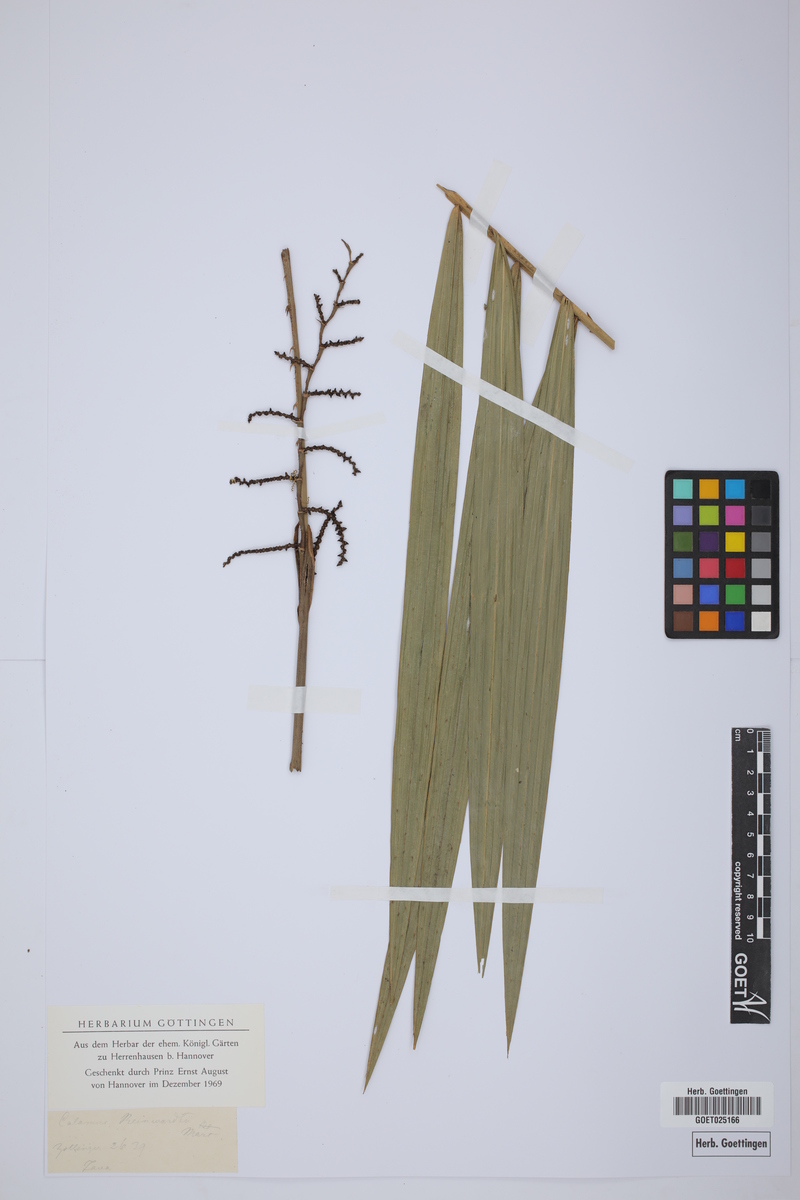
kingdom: Plantae
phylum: Tracheophyta
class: Liliopsida
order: Arecales
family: Arecaceae
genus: Calamus
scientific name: Calamus reinwardtii
